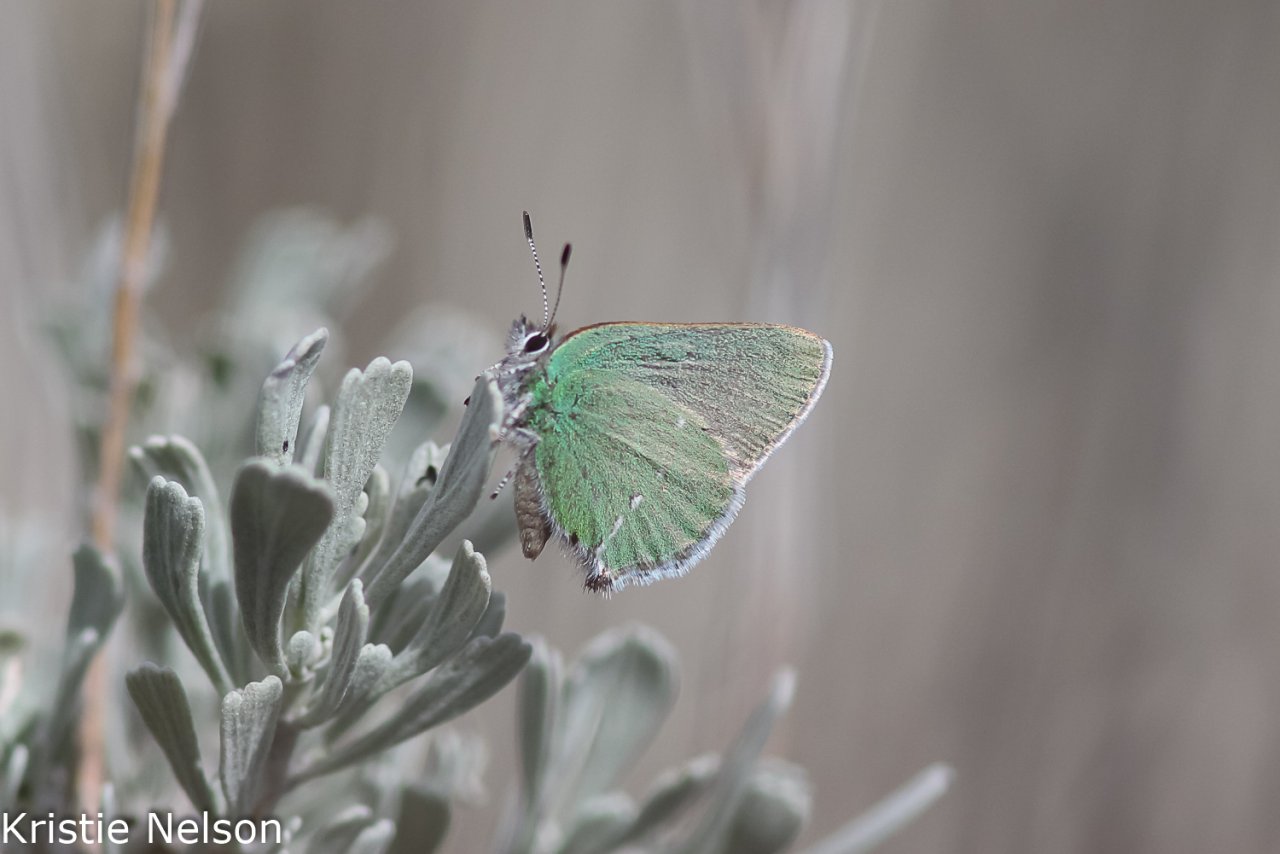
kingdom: Animalia
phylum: Arthropoda
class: Insecta
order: Lepidoptera
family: Lycaenidae
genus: Thecla
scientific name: Thecla sheridanii
